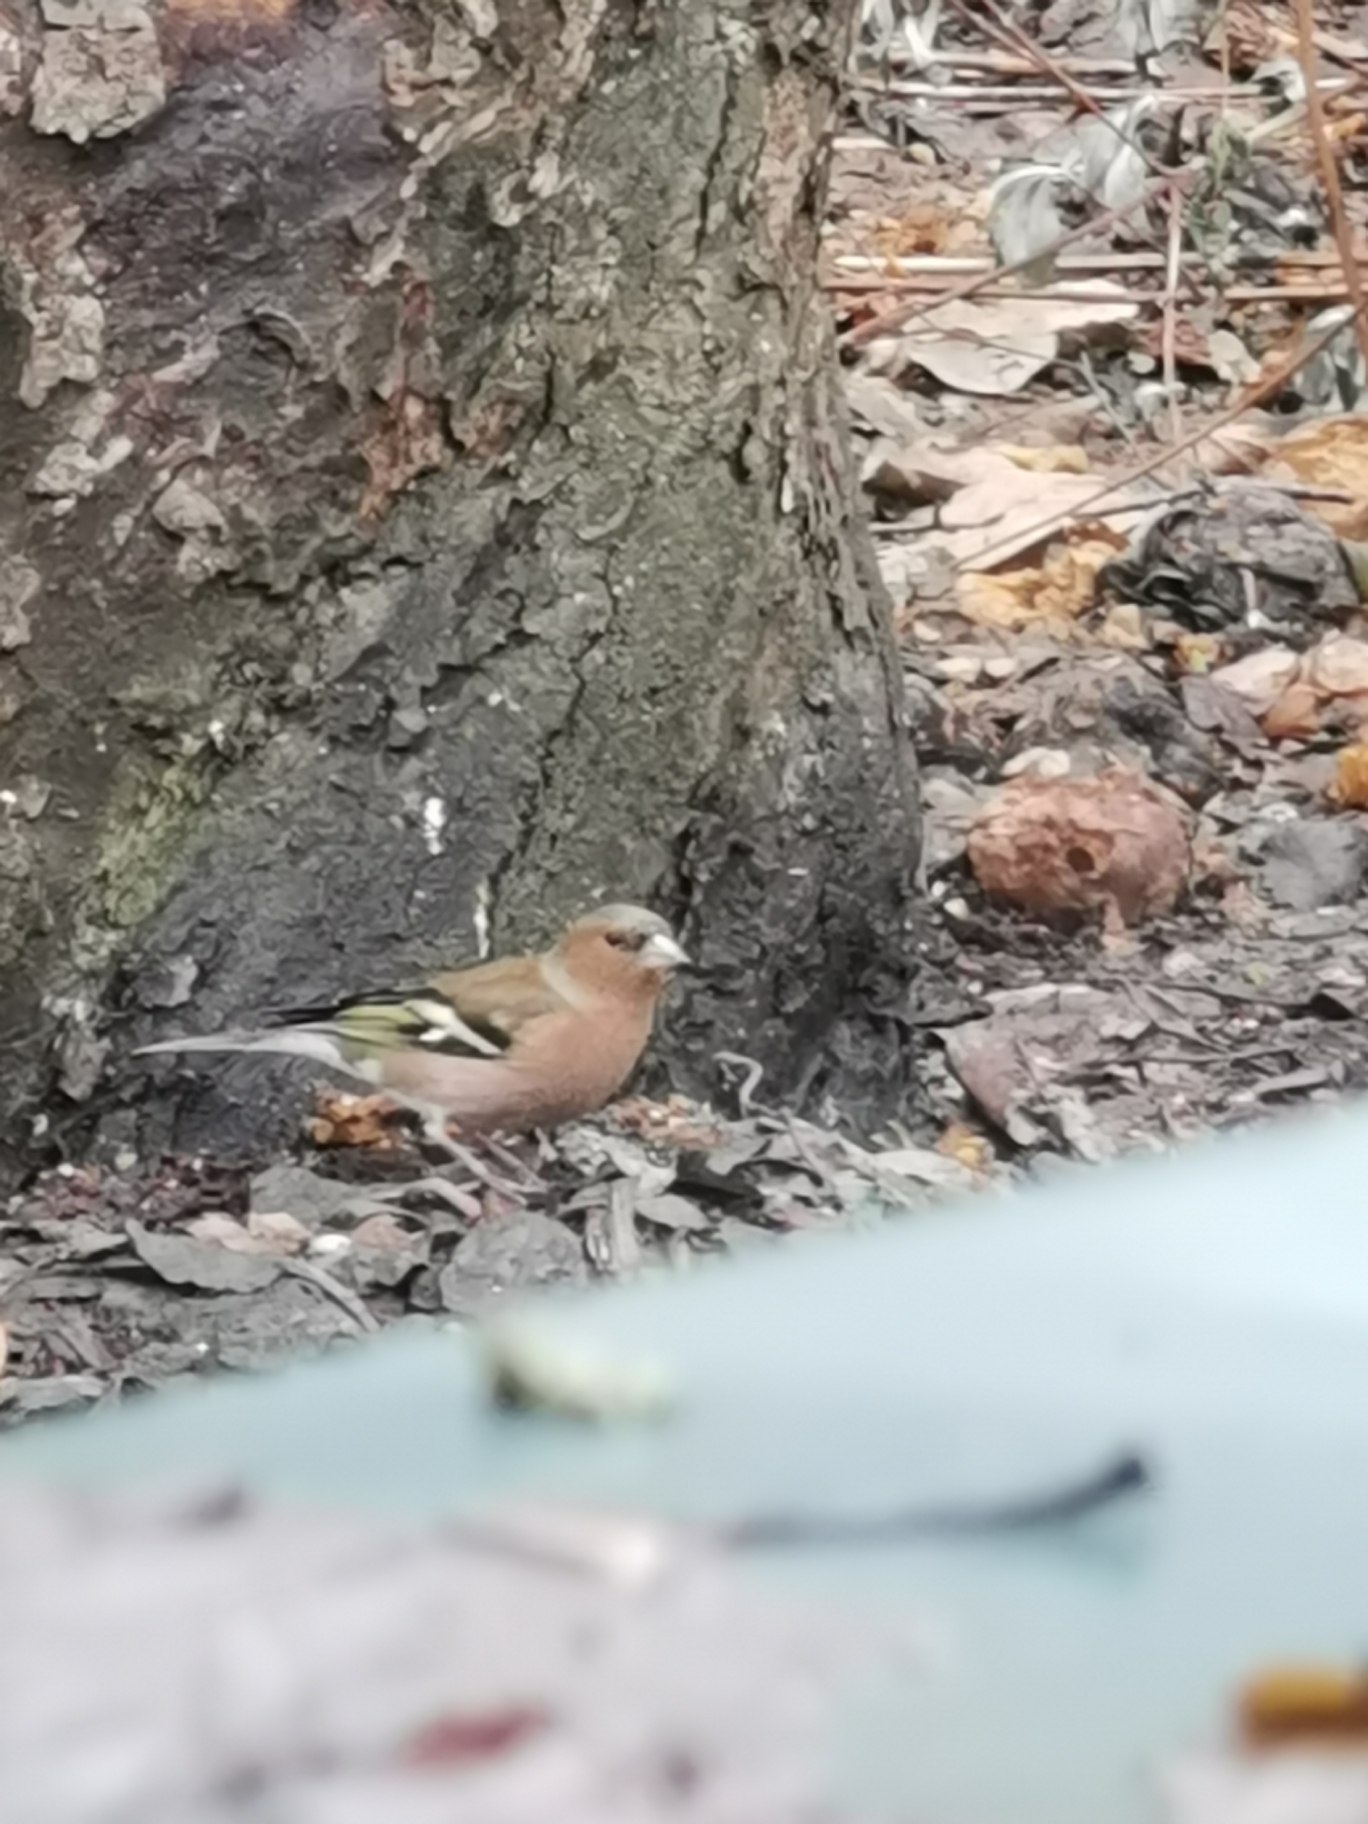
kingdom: Animalia
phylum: Chordata
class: Aves
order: Passeriformes
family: Fringillidae
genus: Fringilla
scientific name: Fringilla coelebs
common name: Bogfinke
